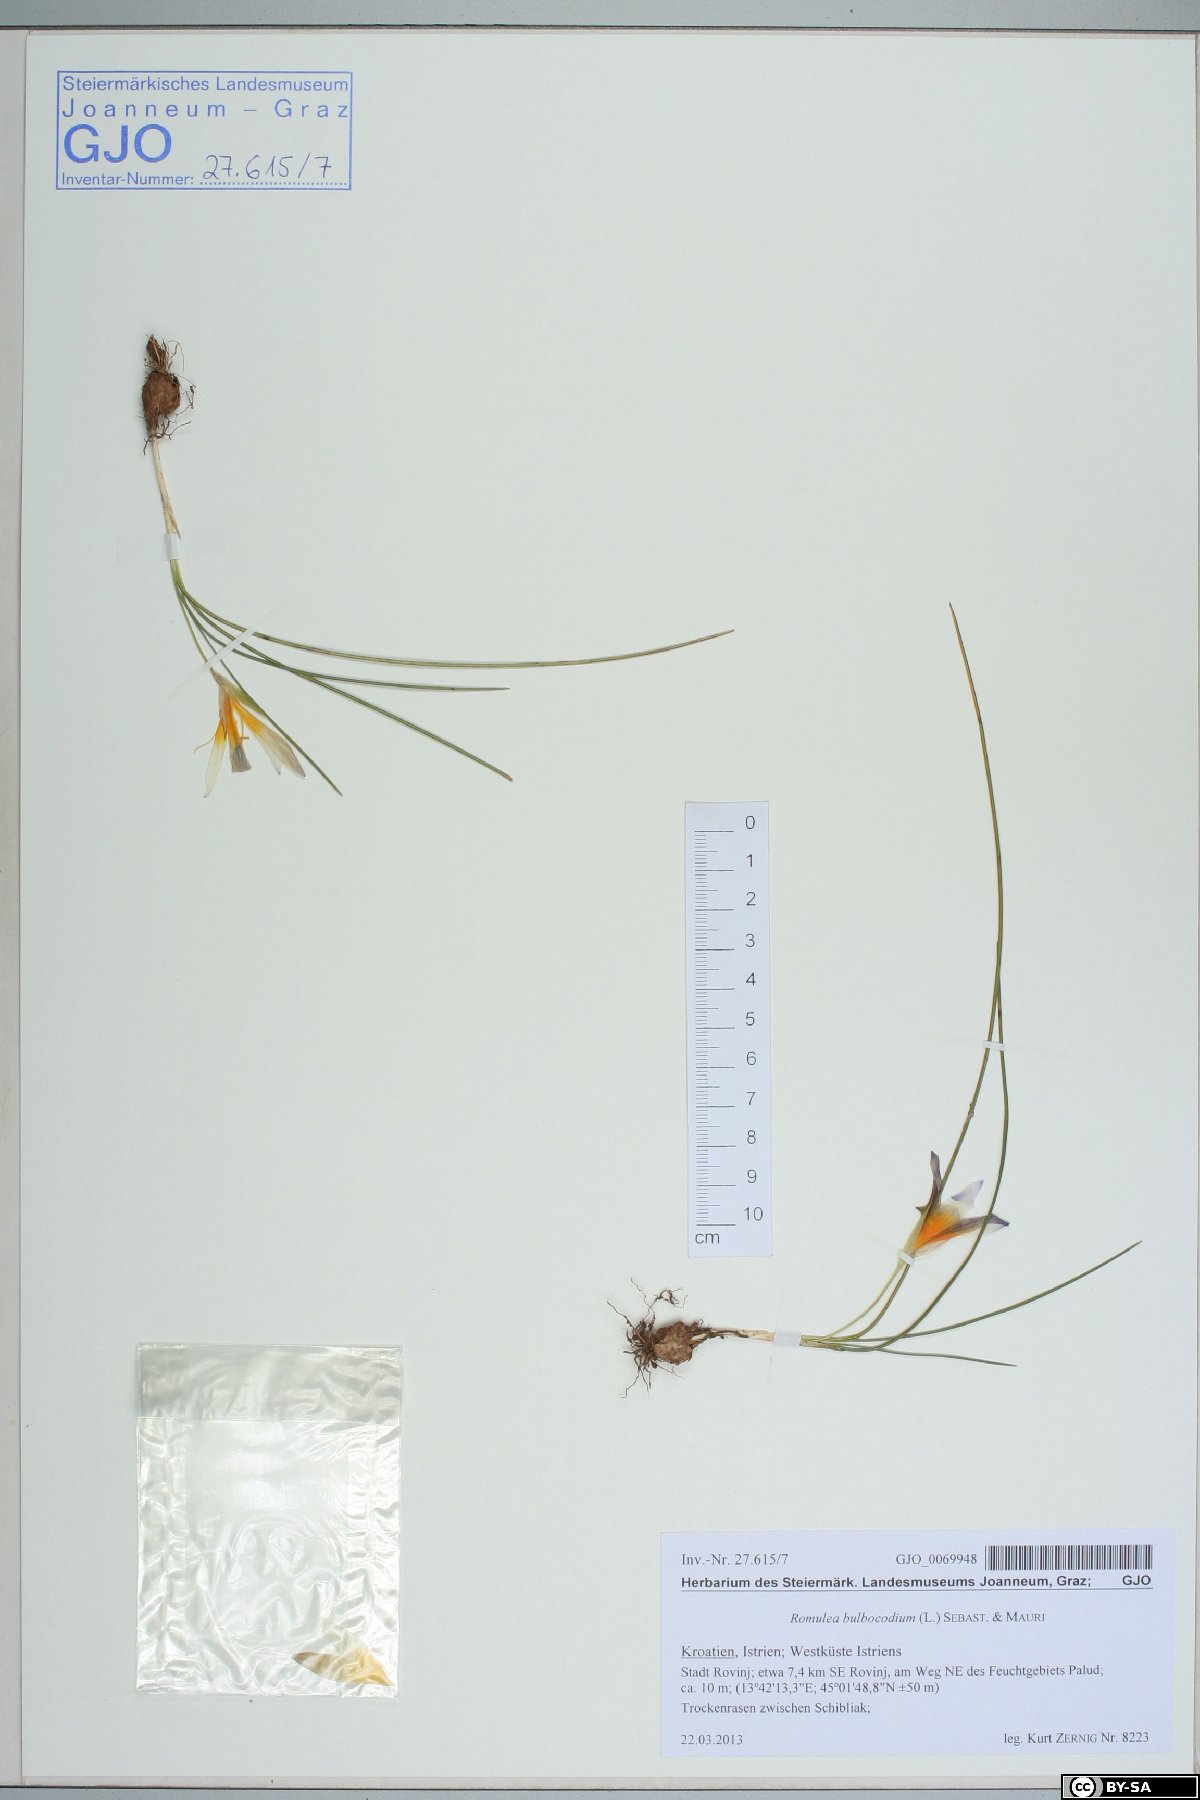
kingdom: Plantae
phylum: Tracheophyta
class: Liliopsida
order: Asparagales
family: Iridaceae
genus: Romulea
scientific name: Romulea bulbocodium
